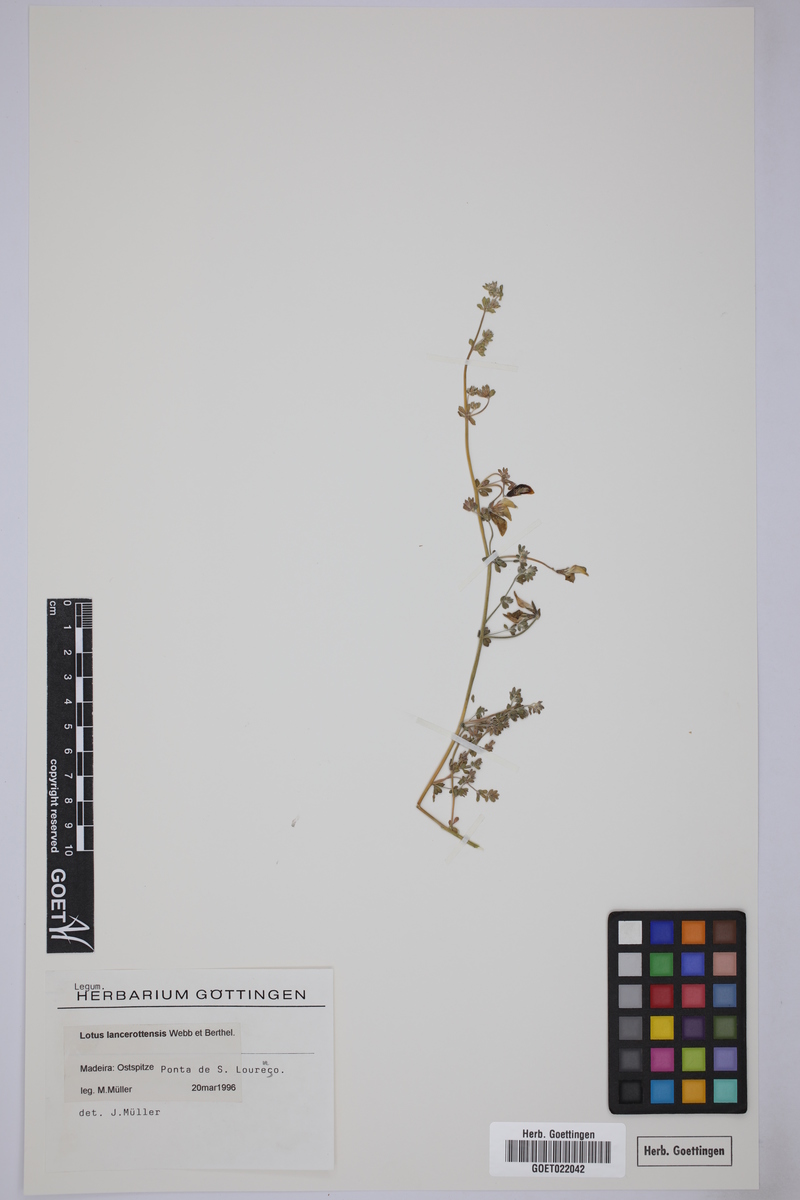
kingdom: Plantae
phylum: Tracheophyta
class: Magnoliopsida
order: Fabales
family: Fabaceae
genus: Lotus
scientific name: Lotus lancerottensis
